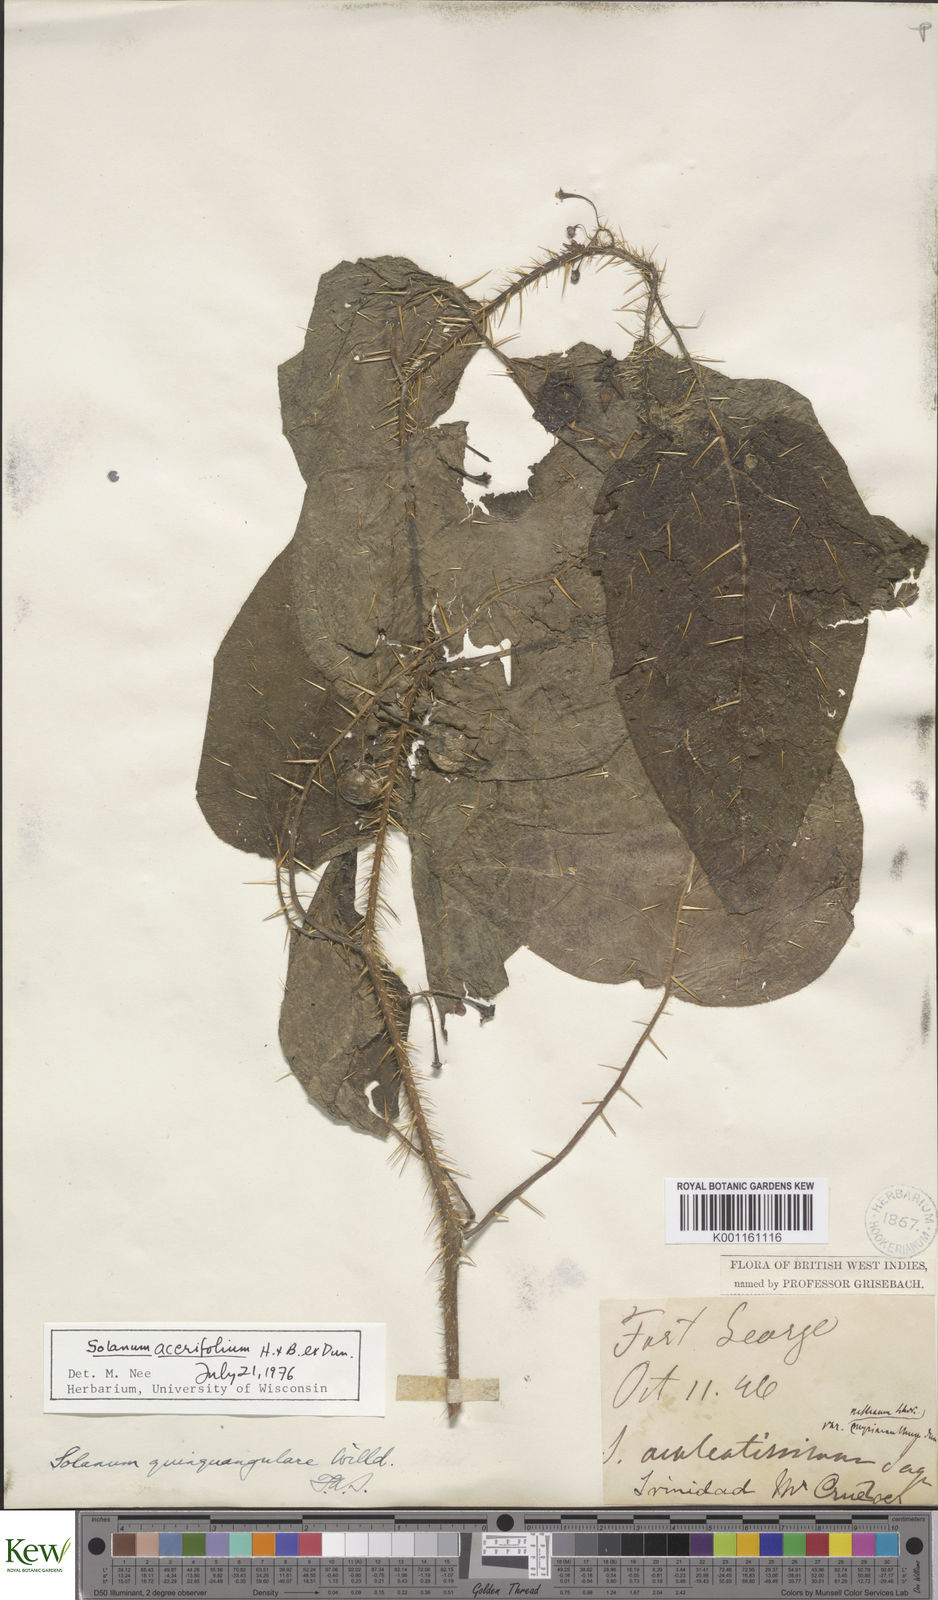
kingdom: Plantae
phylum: Tracheophyta
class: Magnoliopsida
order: Solanales
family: Solanaceae
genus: Solanum
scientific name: Solanum
